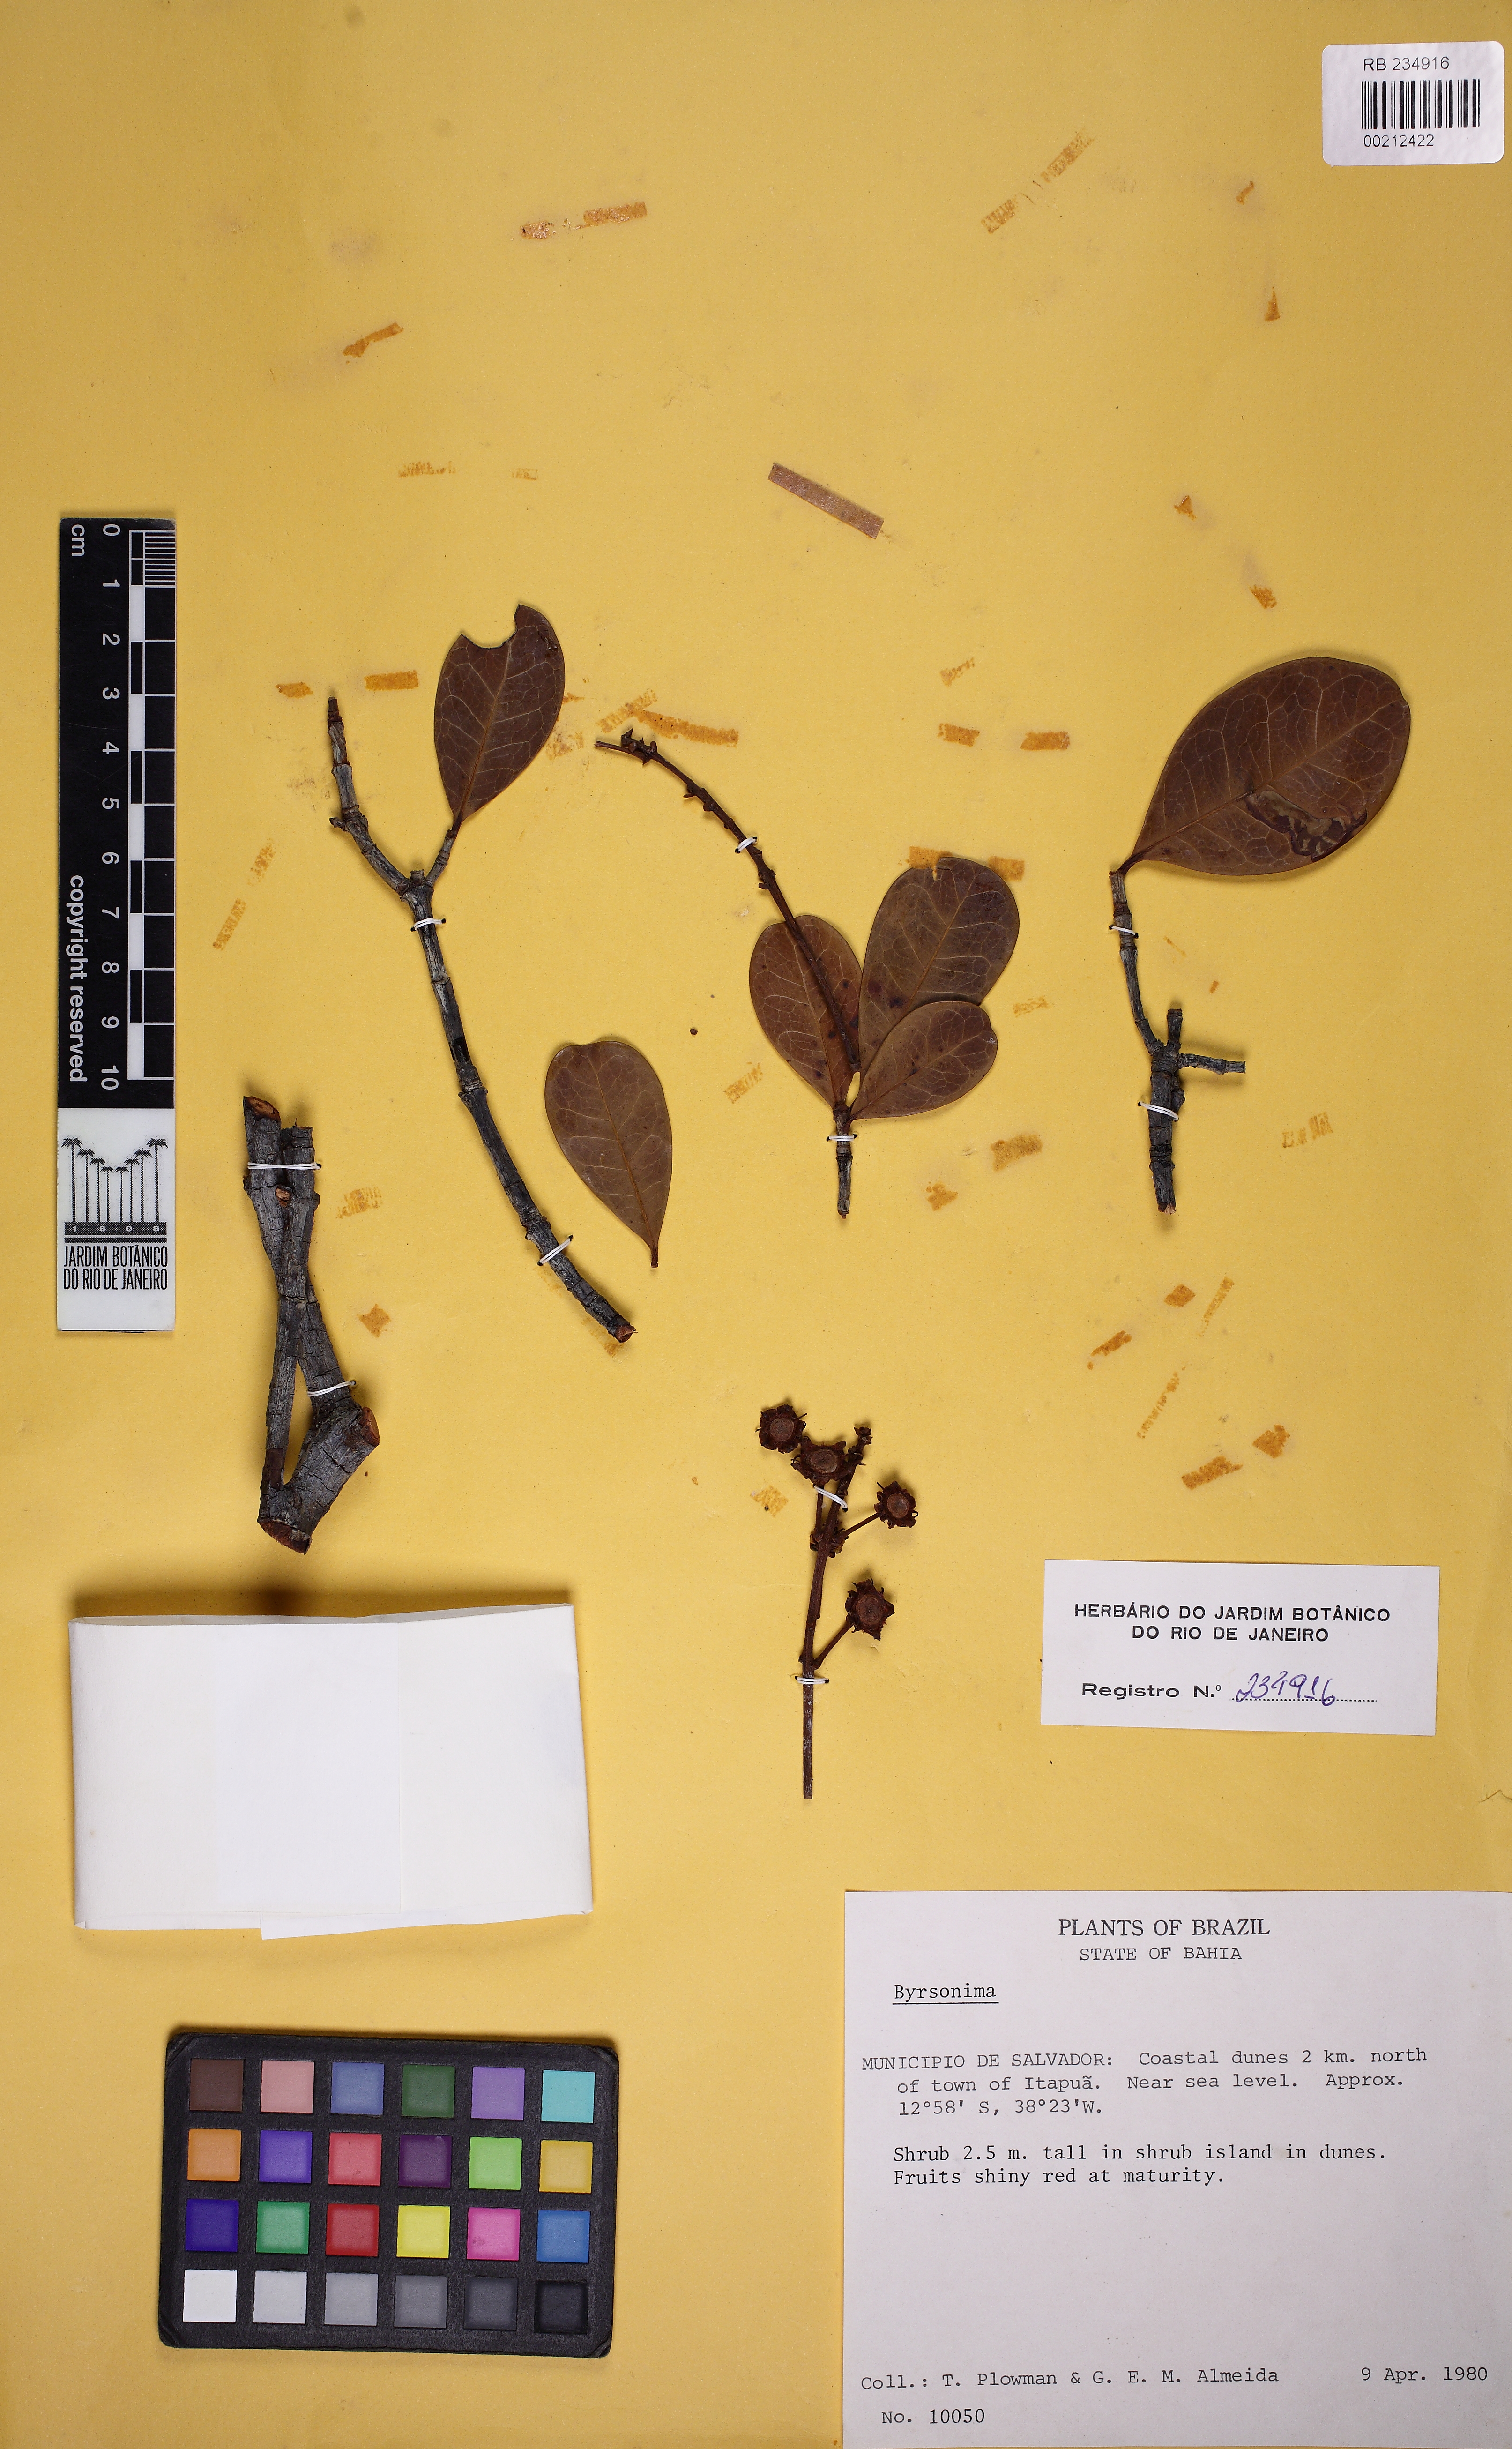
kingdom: Plantae
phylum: Tracheophyta
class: Magnoliopsida
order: Malpighiales
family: Malpighiaceae
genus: Byrsonima
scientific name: Byrsonima bahiana
